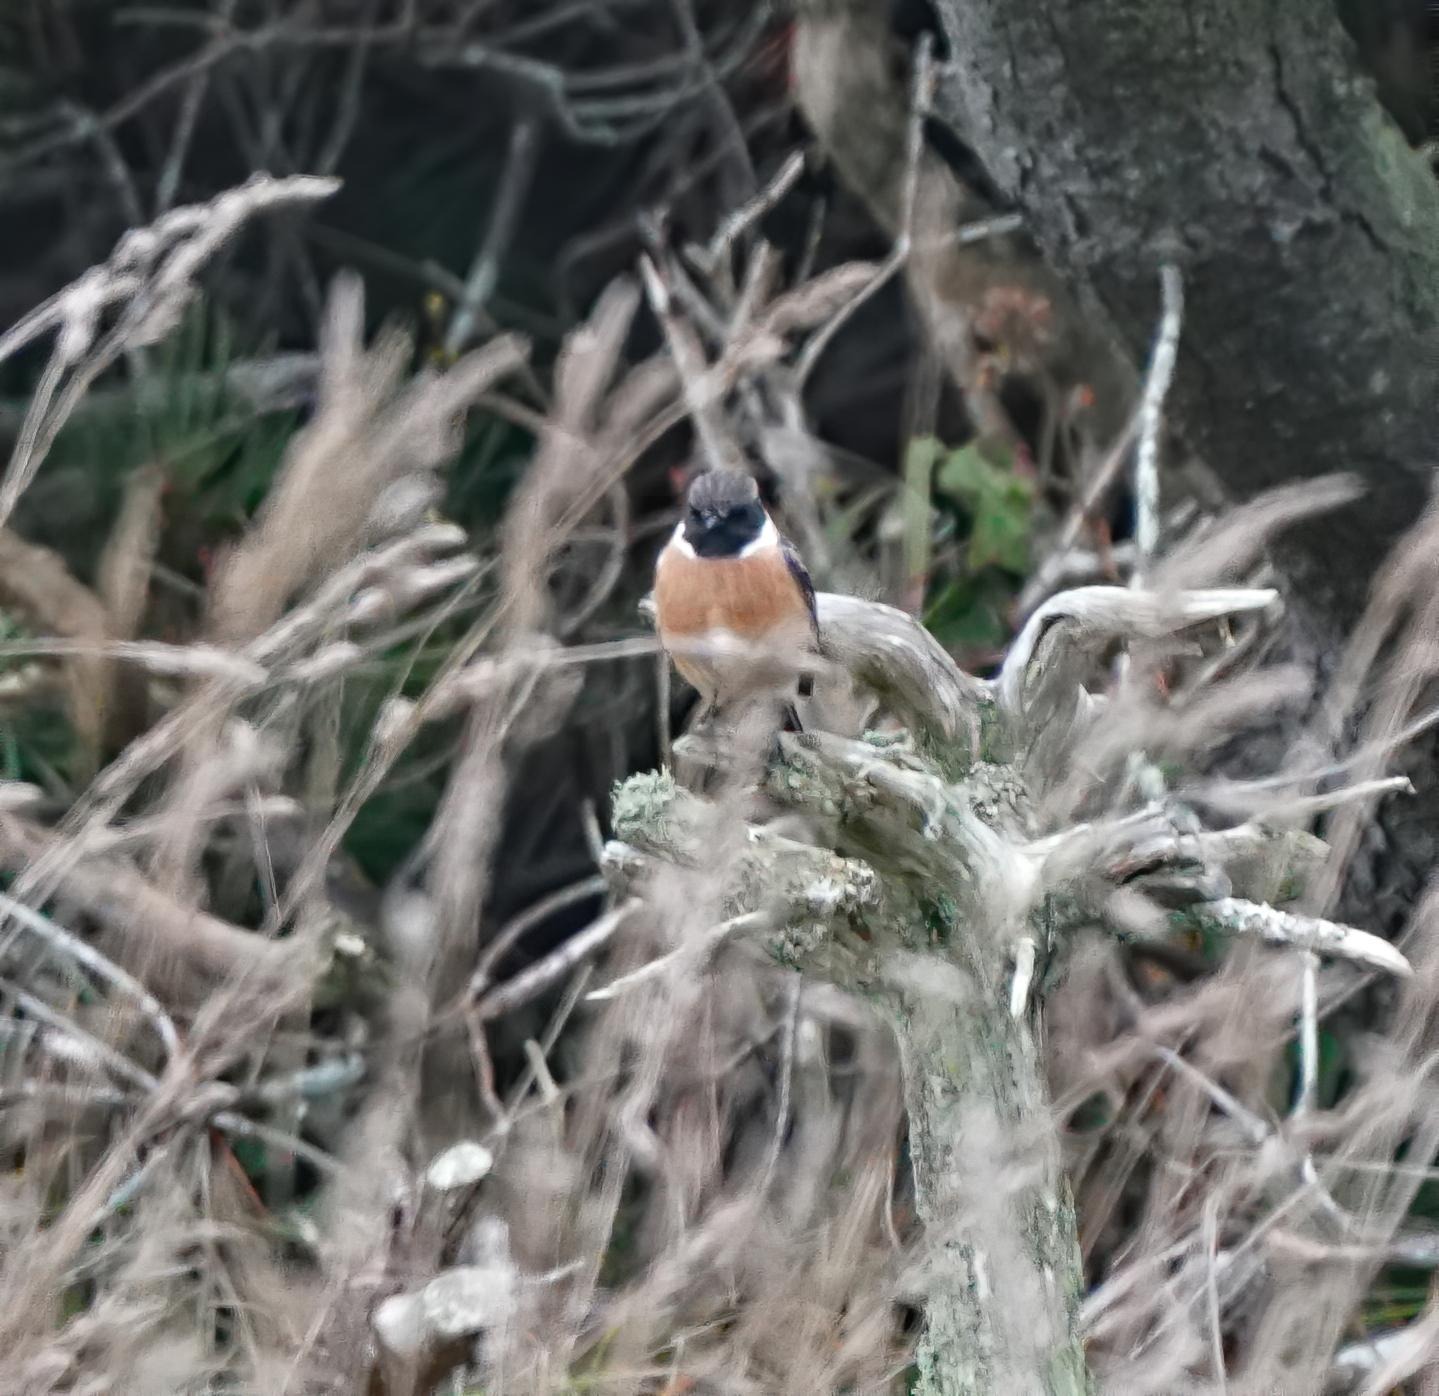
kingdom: Animalia
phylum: Chordata
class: Aves
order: Passeriformes
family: Muscicapidae
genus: Saxicola
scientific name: Saxicola rubicola
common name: Sortstrubet bynkefugl
